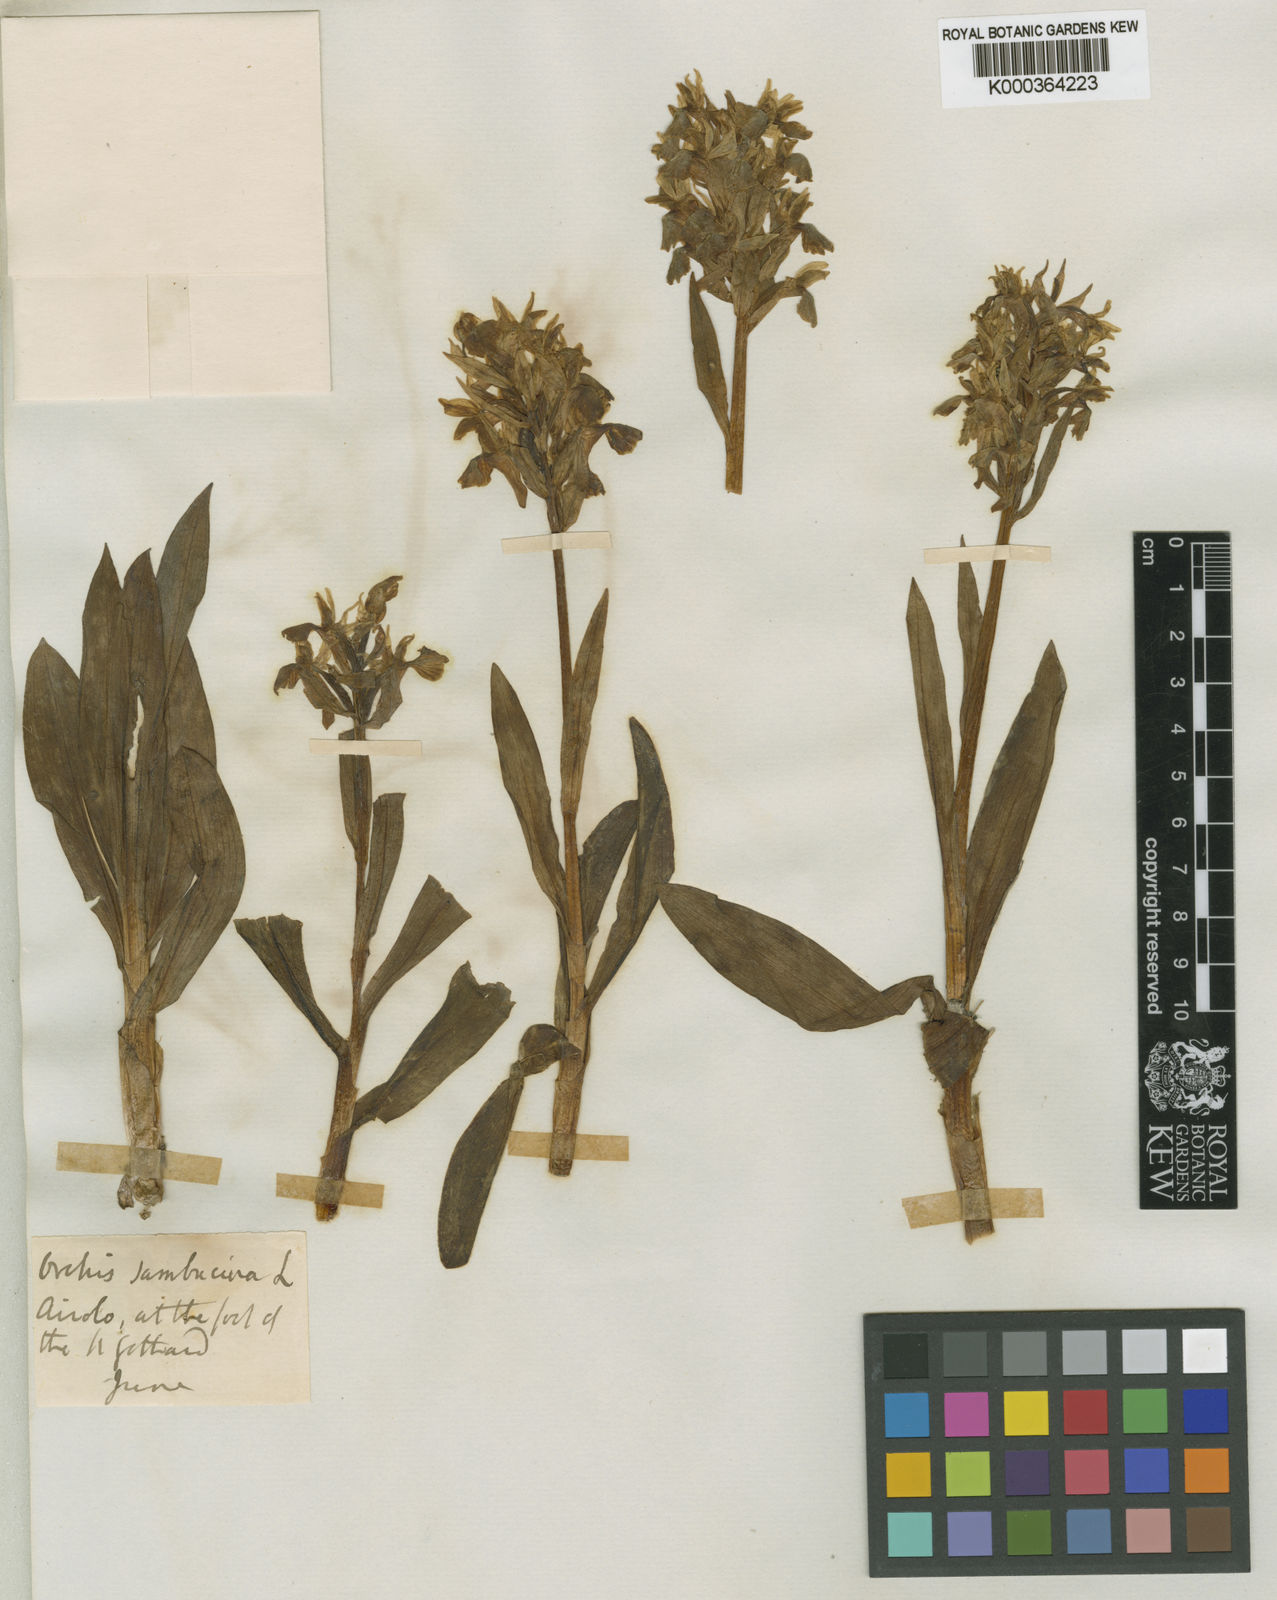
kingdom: Plantae
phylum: Tracheophyta
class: Liliopsida
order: Asparagales
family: Orchidaceae
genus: Dactylorhiza
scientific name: Dactylorhiza
